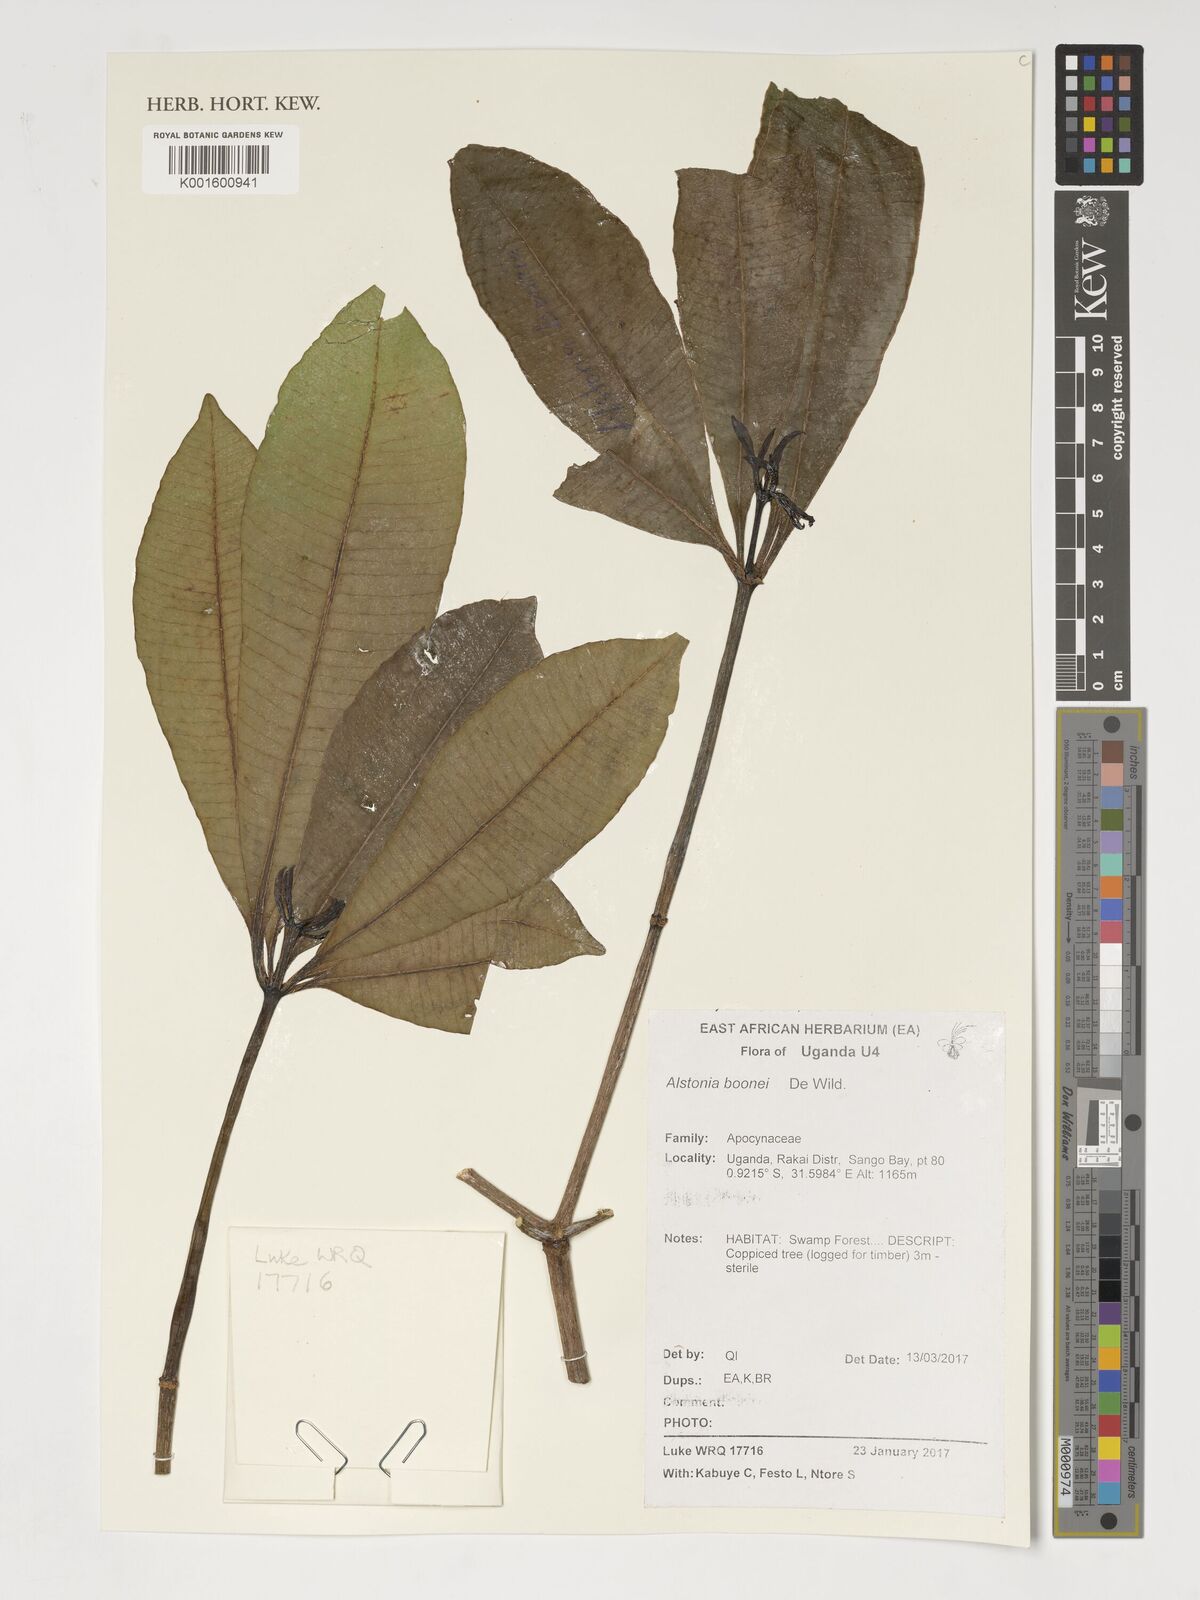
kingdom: Plantae
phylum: Tracheophyta
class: Magnoliopsida
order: Gentianales
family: Apocynaceae
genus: Alstonia
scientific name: Alstonia boonei
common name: Alstonia
